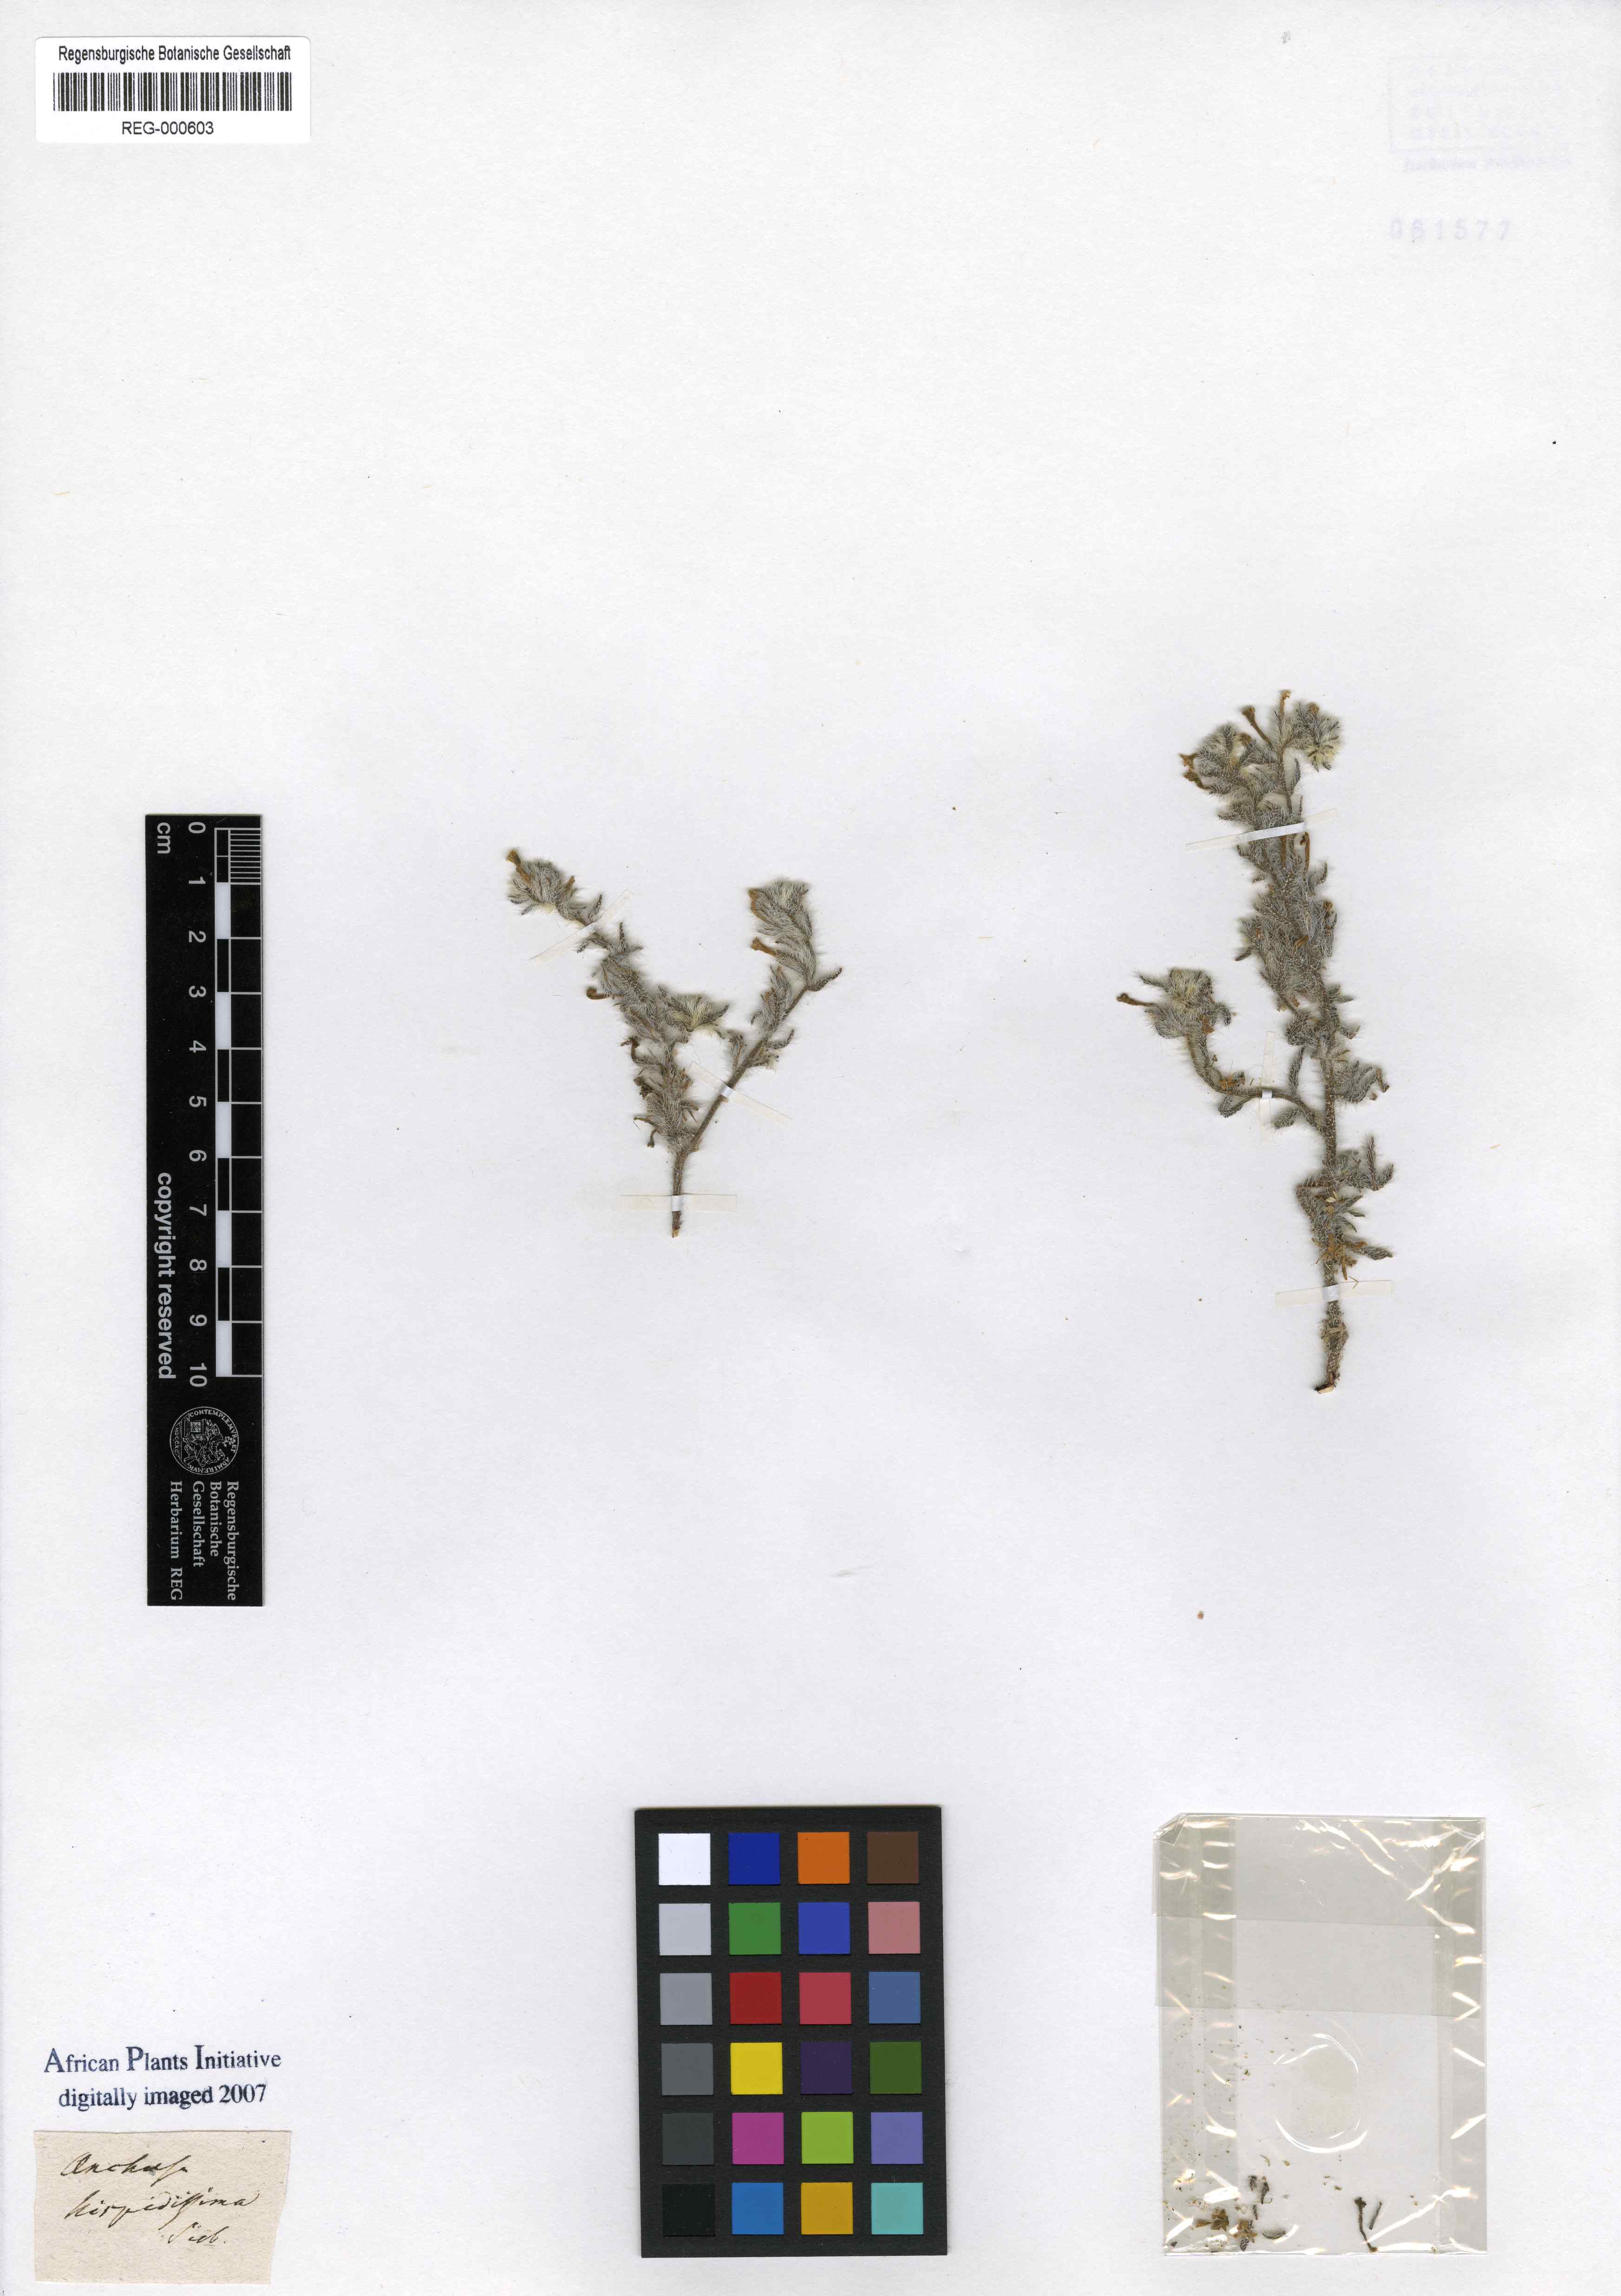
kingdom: Plantae
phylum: Tracheophyta
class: Magnoliopsida
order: Boraginales
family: Boraginaceae
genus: Arnebia
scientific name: Arnebia hispidissima
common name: Arabian-primrose
